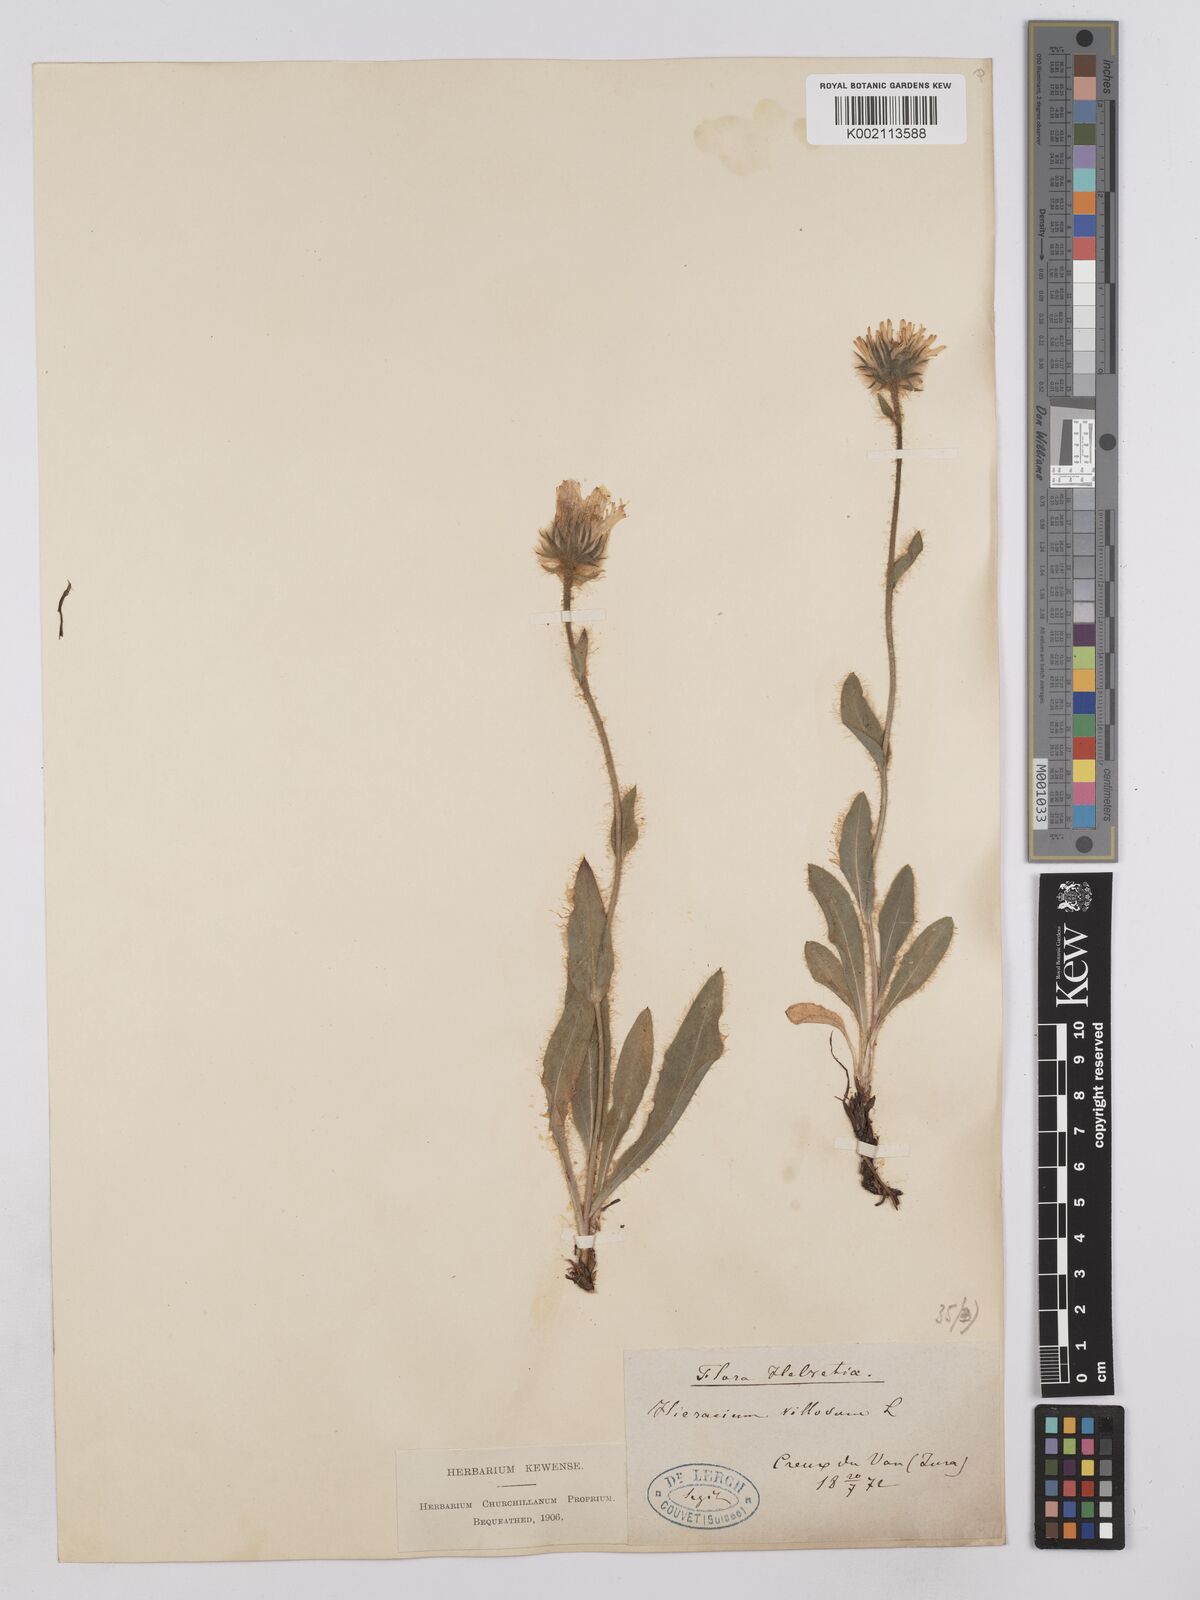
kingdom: Plantae
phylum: Tracheophyta
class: Magnoliopsida
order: Asterales
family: Asteraceae
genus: Hieracium
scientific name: Hieracium villosum
